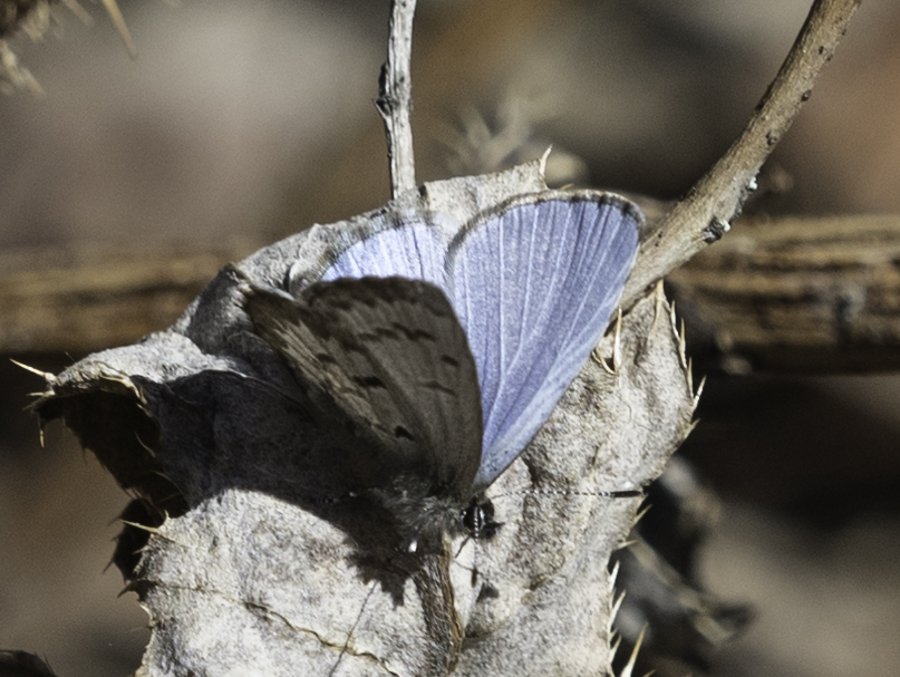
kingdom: Animalia
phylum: Arthropoda
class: Insecta
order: Lepidoptera
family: Lycaenidae
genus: Celastrina
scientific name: Celastrina lucia
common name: Northern Spring Azure
